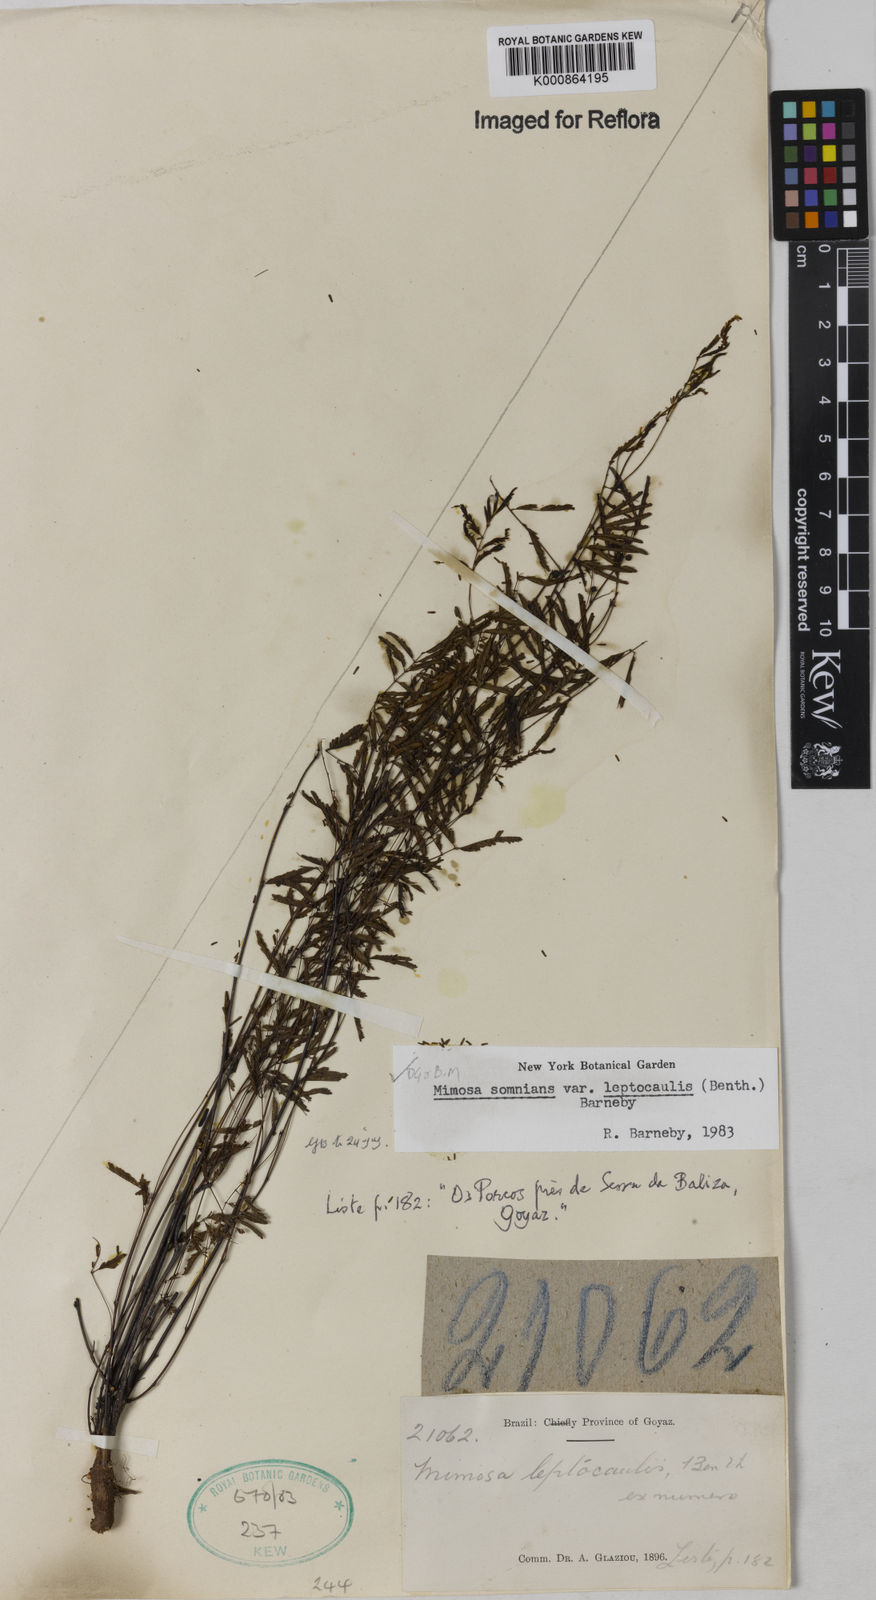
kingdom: Plantae
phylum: Tracheophyta
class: Magnoliopsida
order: Fabales
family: Fabaceae
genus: Mimosa
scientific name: Mimosa somnians
